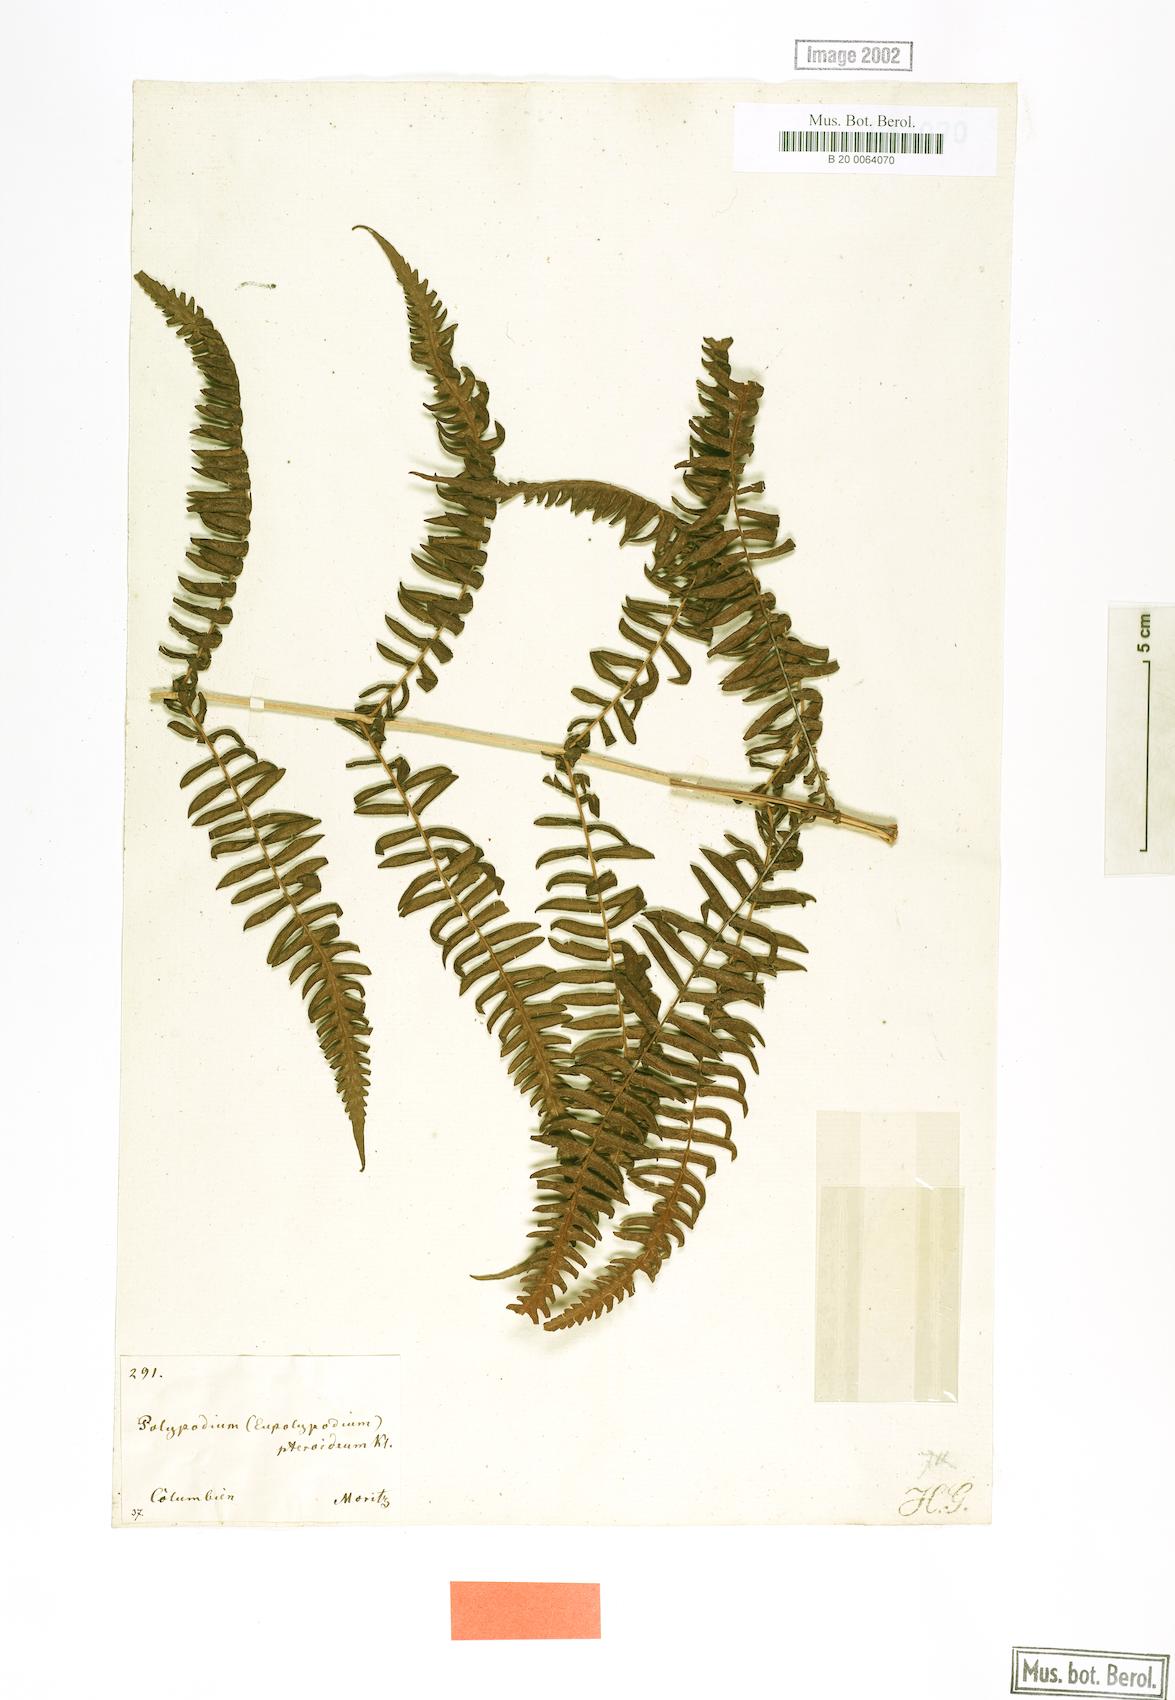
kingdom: Plantae
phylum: Tracheophyta
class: Polypodiopsida
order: Polypodiales
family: Thelypteridaceae
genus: Amauropelta
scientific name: Amauropelta pteroidea
